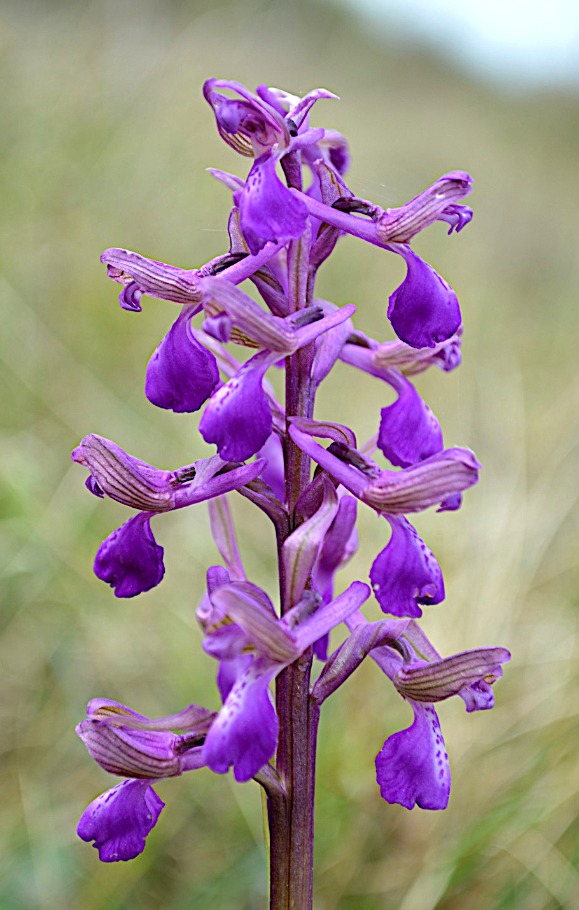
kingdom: Plantae
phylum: Tracheophyta
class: Liliopsida
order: Asparagales
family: Orchidaceae
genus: Anacamptis
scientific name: Anacamptis morio
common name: Salepgøgeurt
